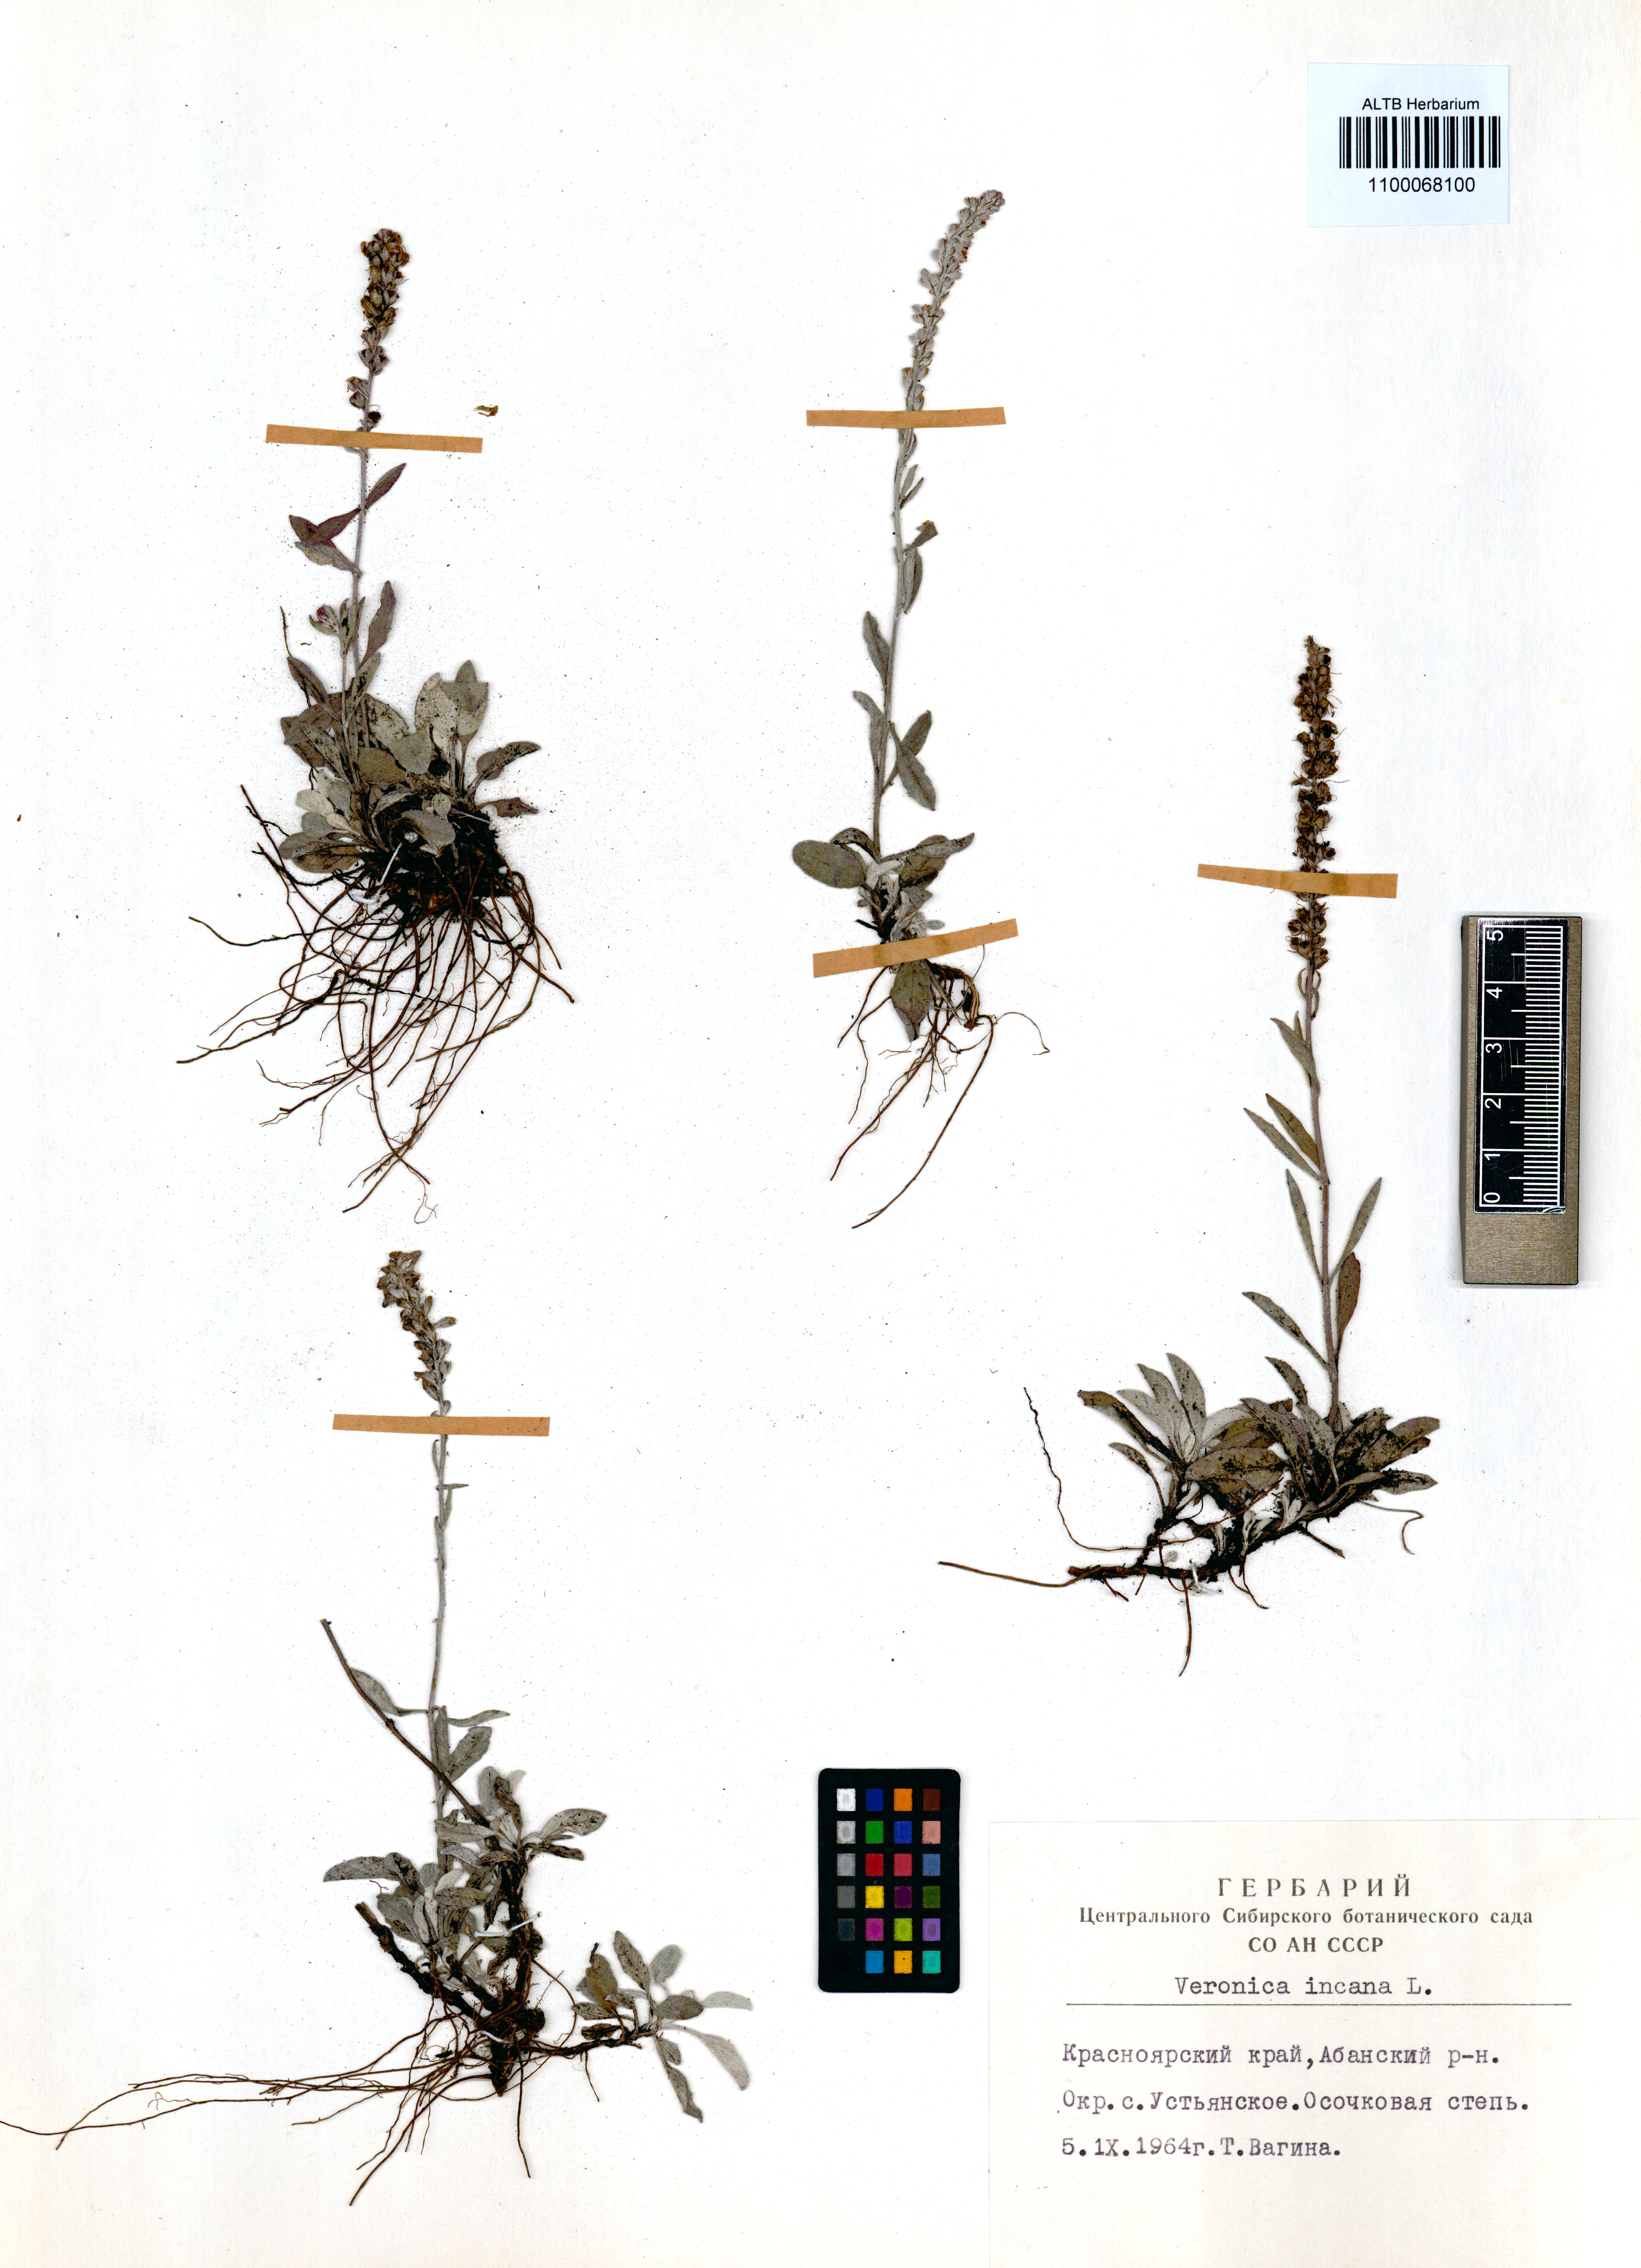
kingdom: Plantae
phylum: Tracheophyta
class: Magnoliopsida
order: Lamiales
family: Plantaginaceae
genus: Veronica
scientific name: Veronica incana
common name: Silver speedwell
